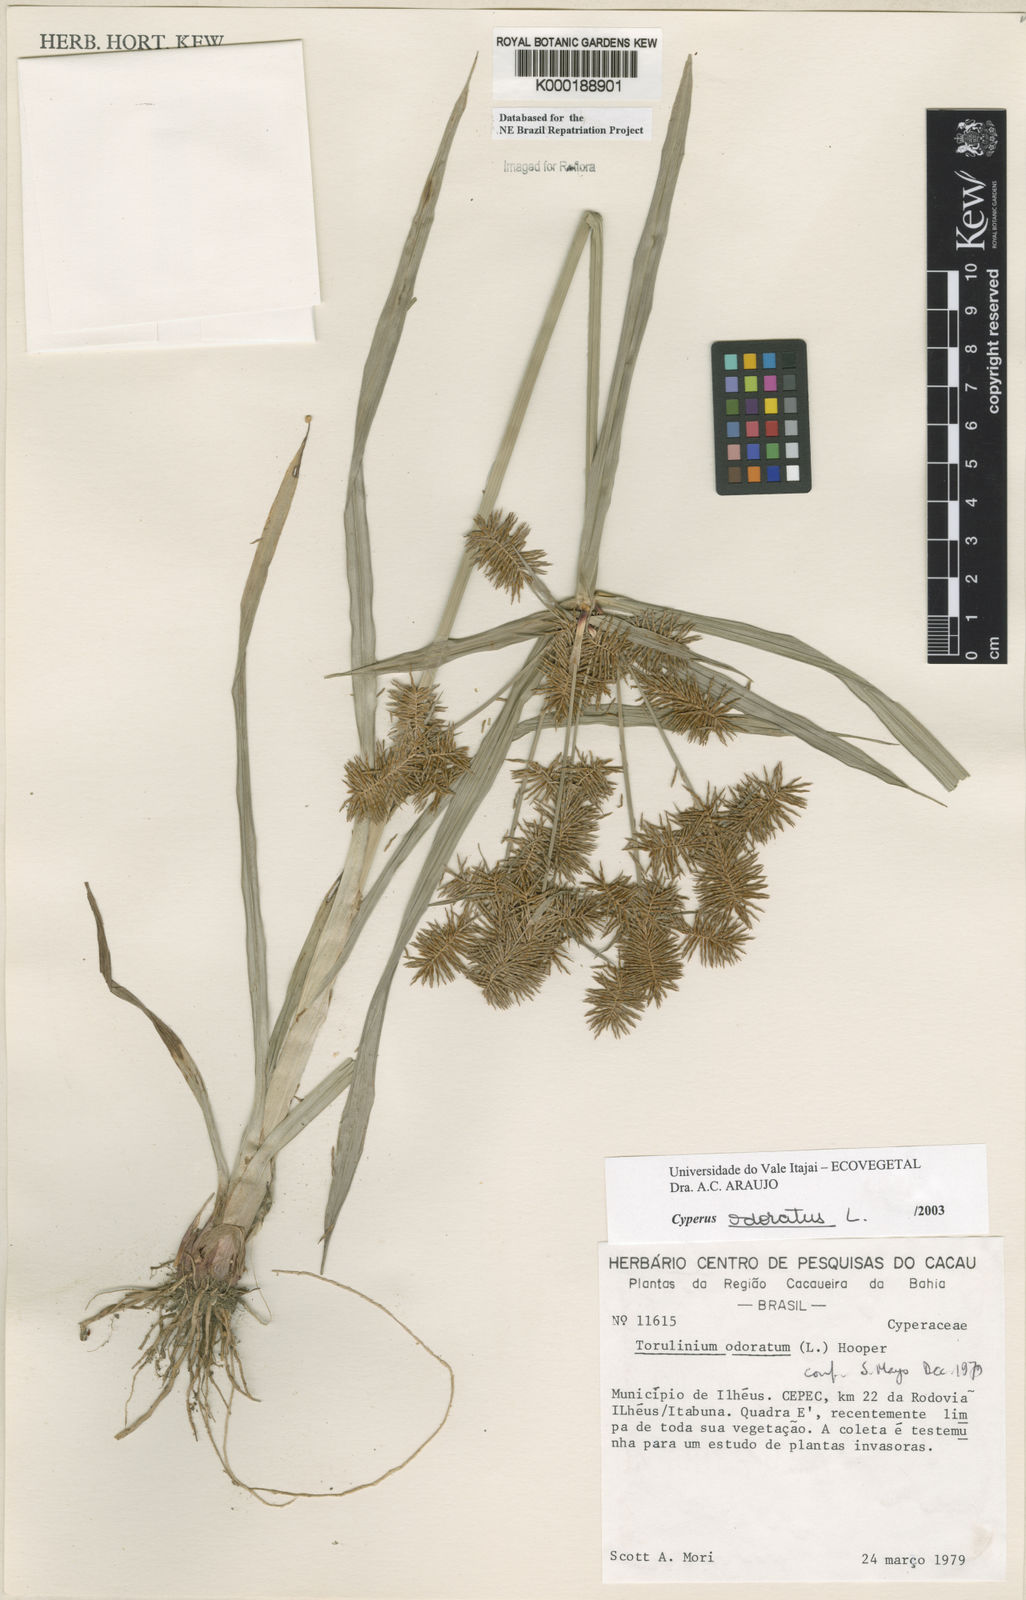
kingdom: Plantae
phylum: Tracheophyta
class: Liliopsida
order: Poales
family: Cyperaceae
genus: Cyperus
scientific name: Cyperus odoratus
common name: Fragrant flatsedge
